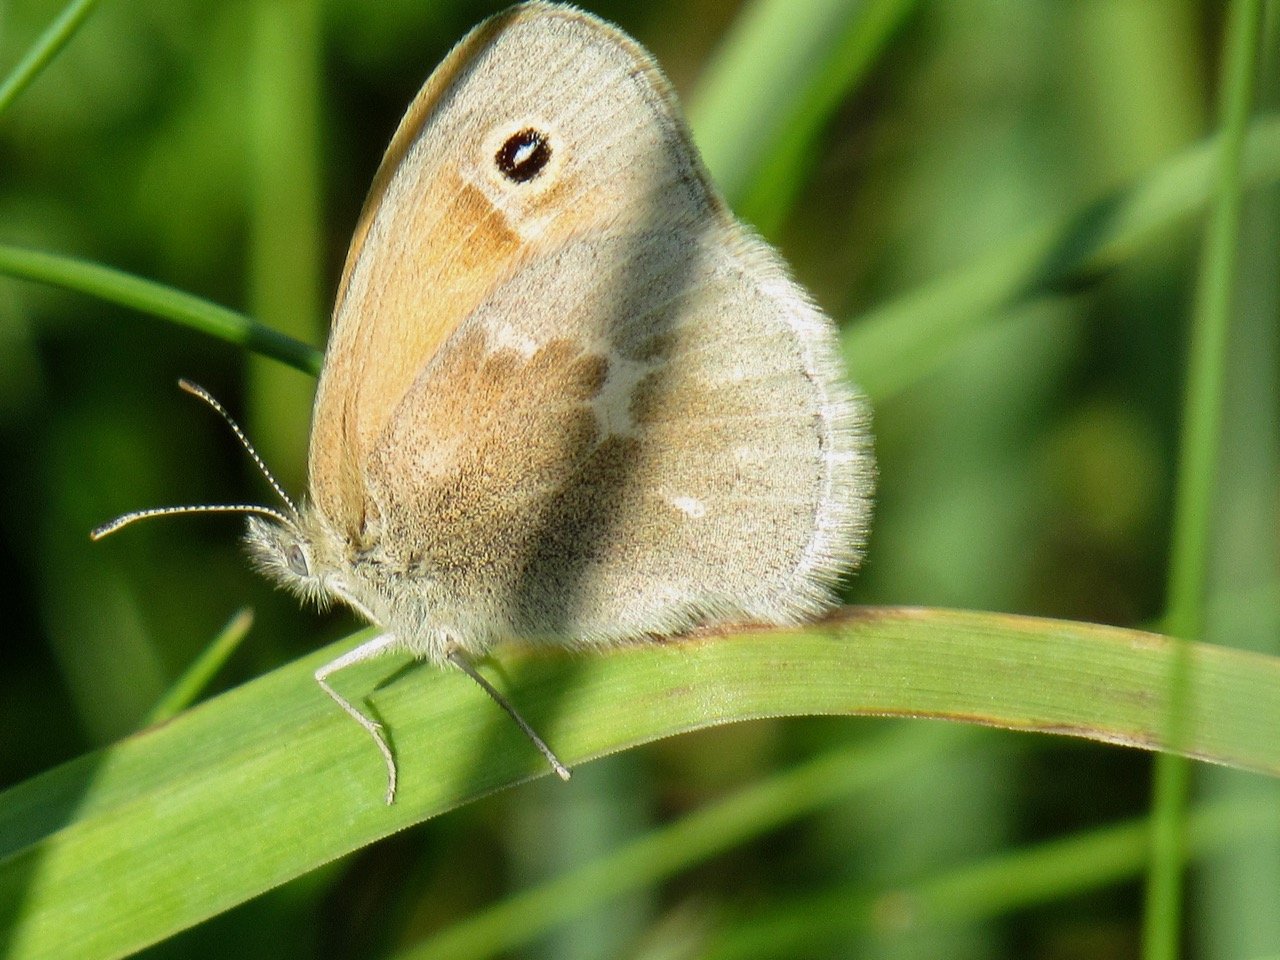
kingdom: Animalia
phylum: Arthropoda
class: Insecta
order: Lepidoptera
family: Nymphalidae
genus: Coenonympha
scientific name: Coenonympha tullia
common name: Large Heath
